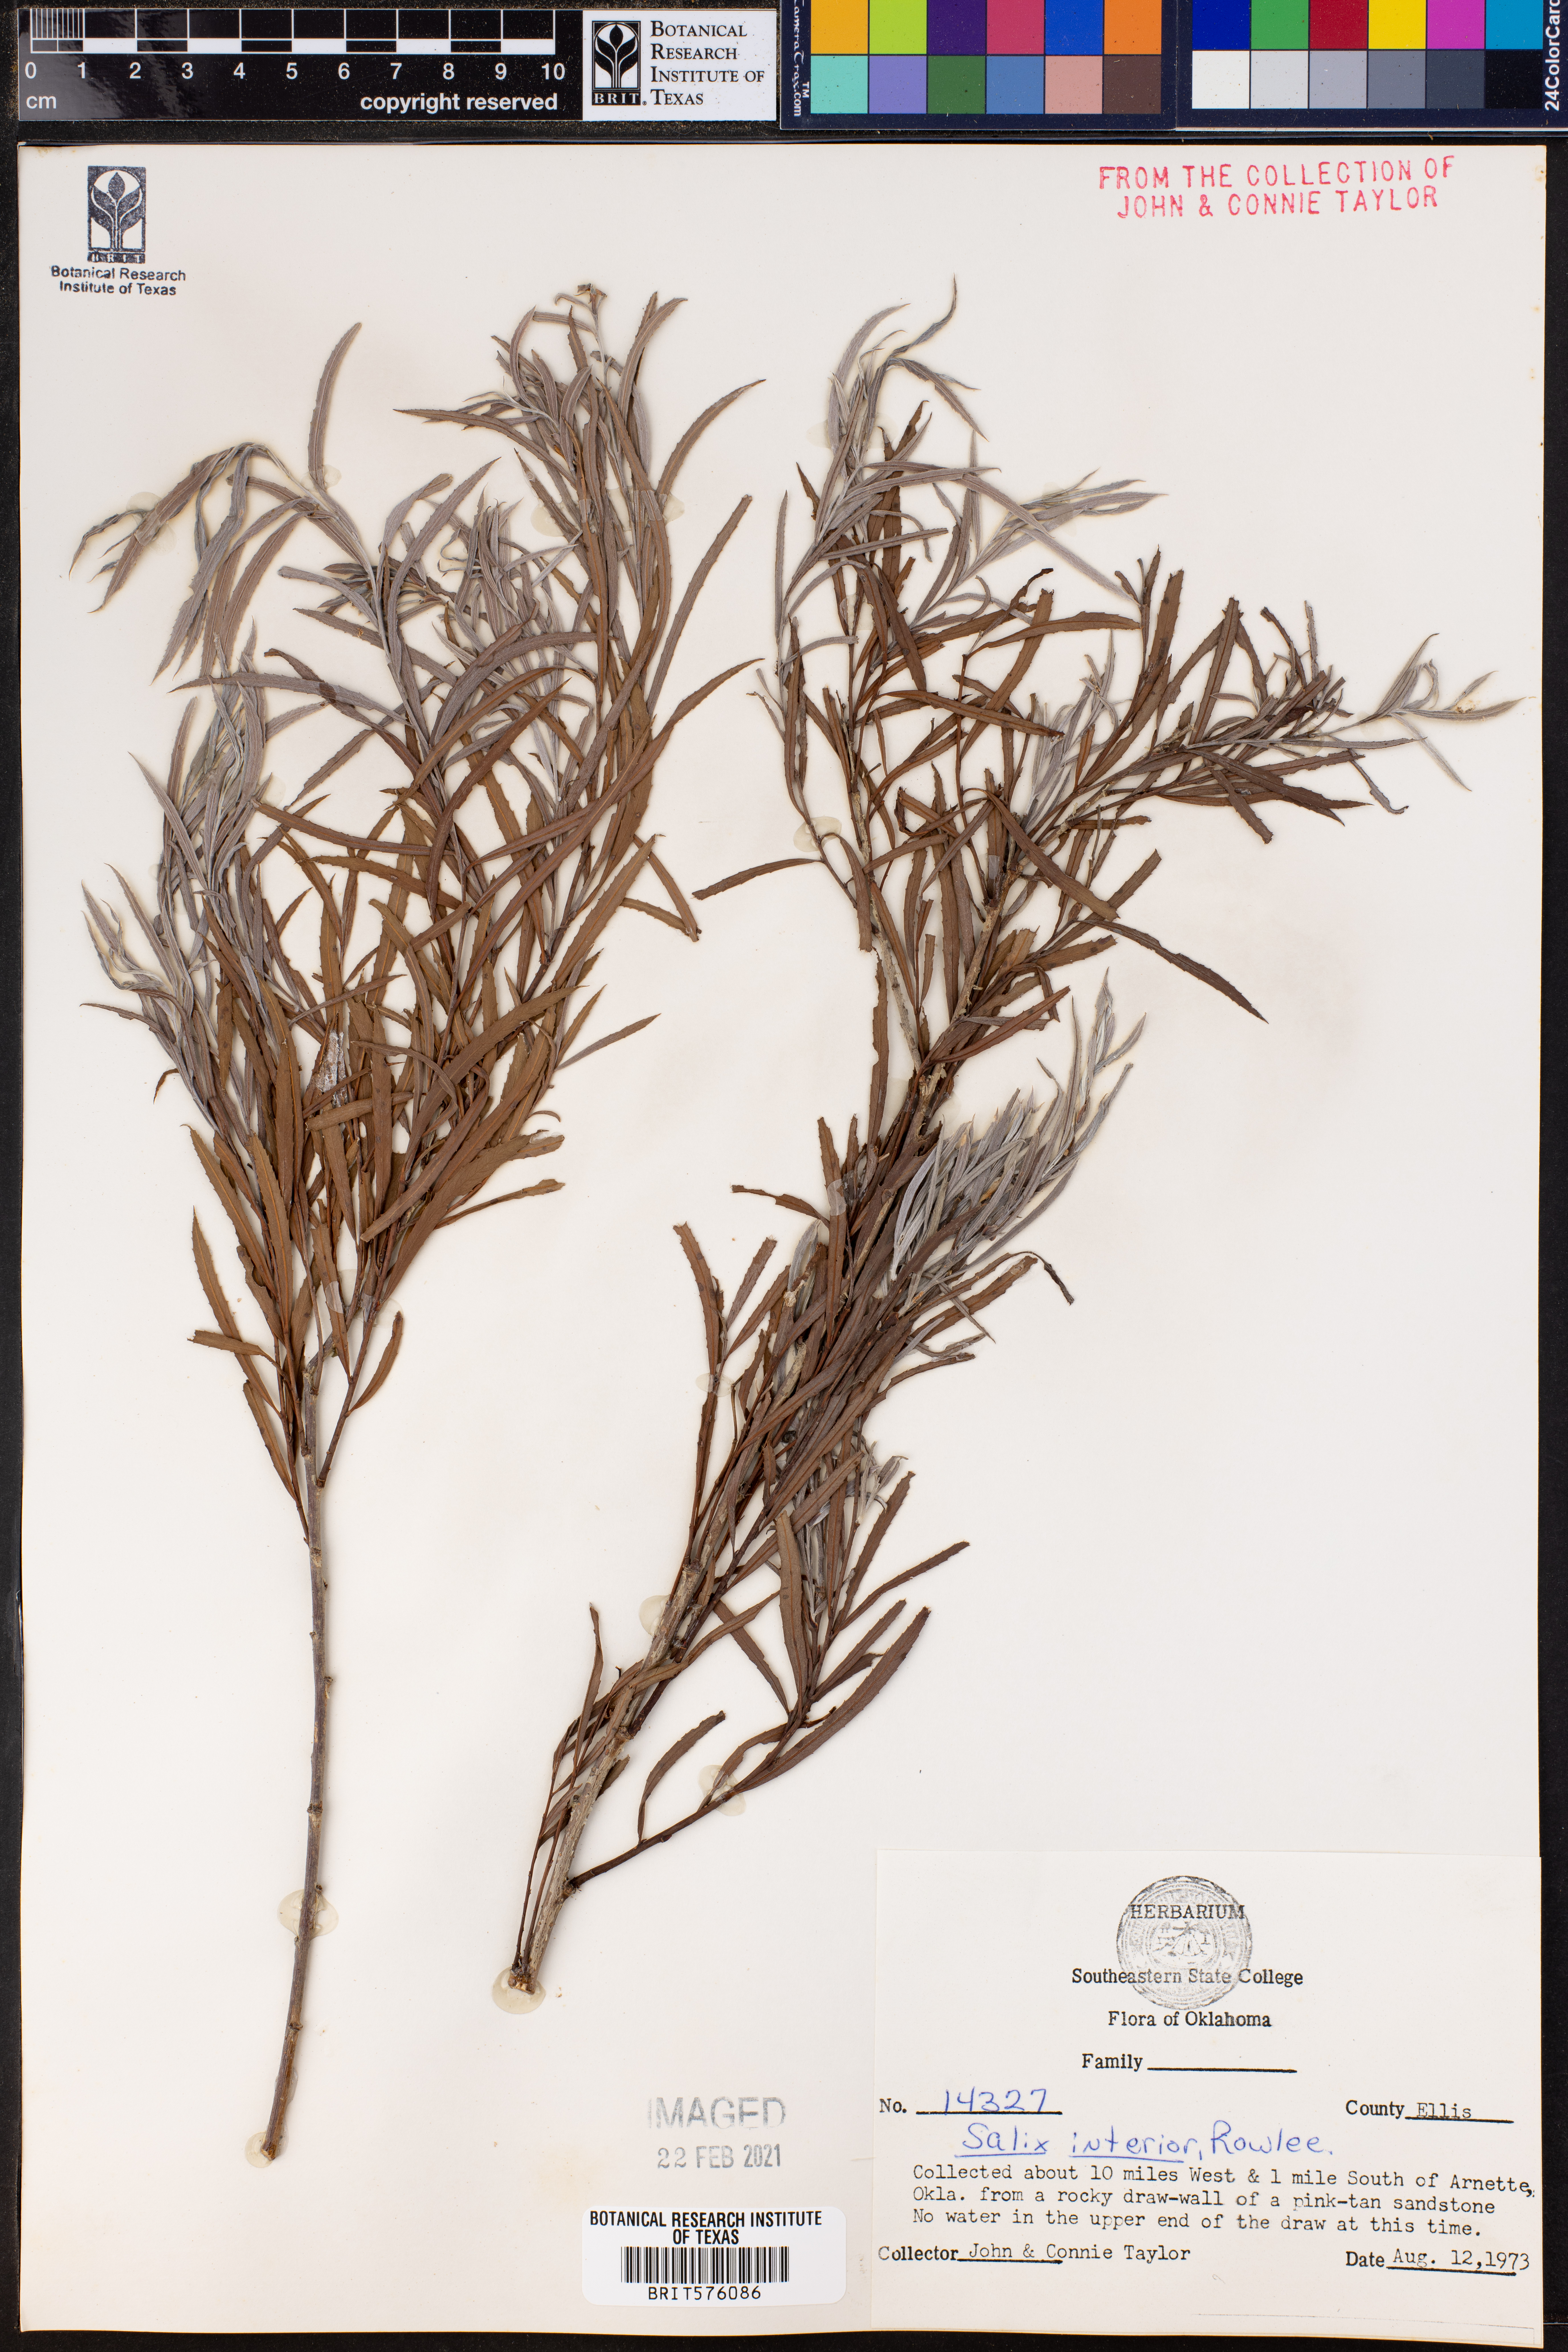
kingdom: Plantae
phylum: Tracheophyta
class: Magnoliopsida
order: Malpighiales
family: Salicaceae
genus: Salix
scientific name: Salix interior
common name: Sandbar willow
